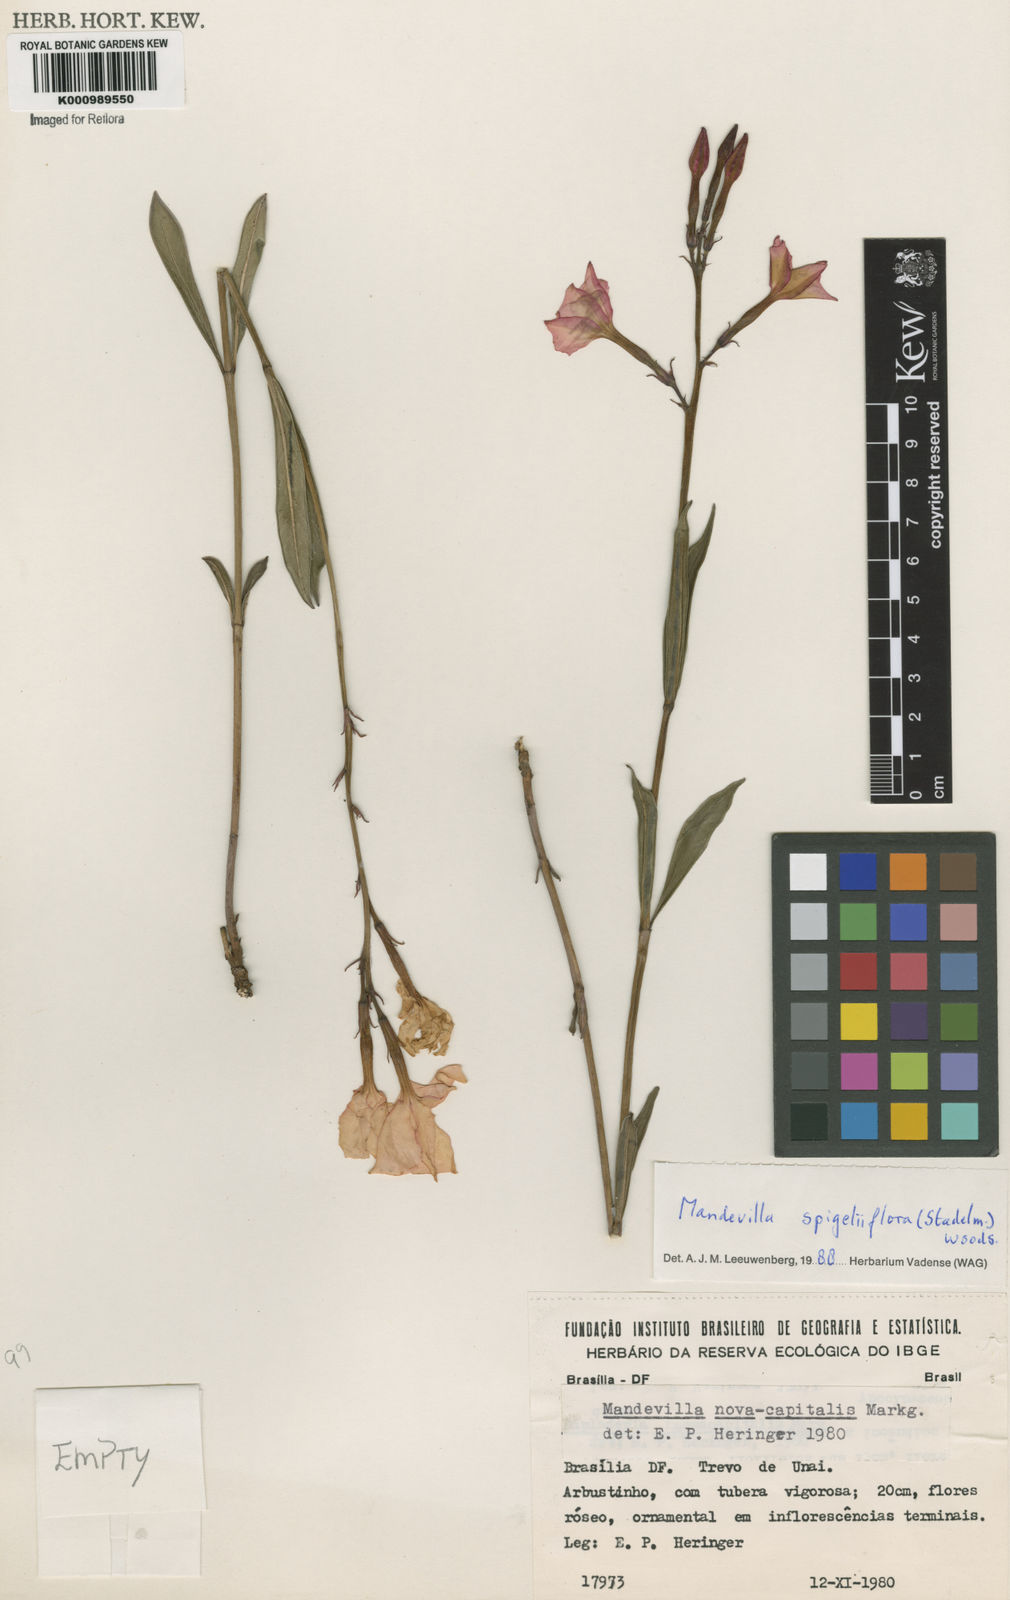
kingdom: Plantae
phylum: Tracheophyta
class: Magnoliopsida
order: Gentianales
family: Apocynaceae
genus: Mandevilla
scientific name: Mandevilla novocapitalis
